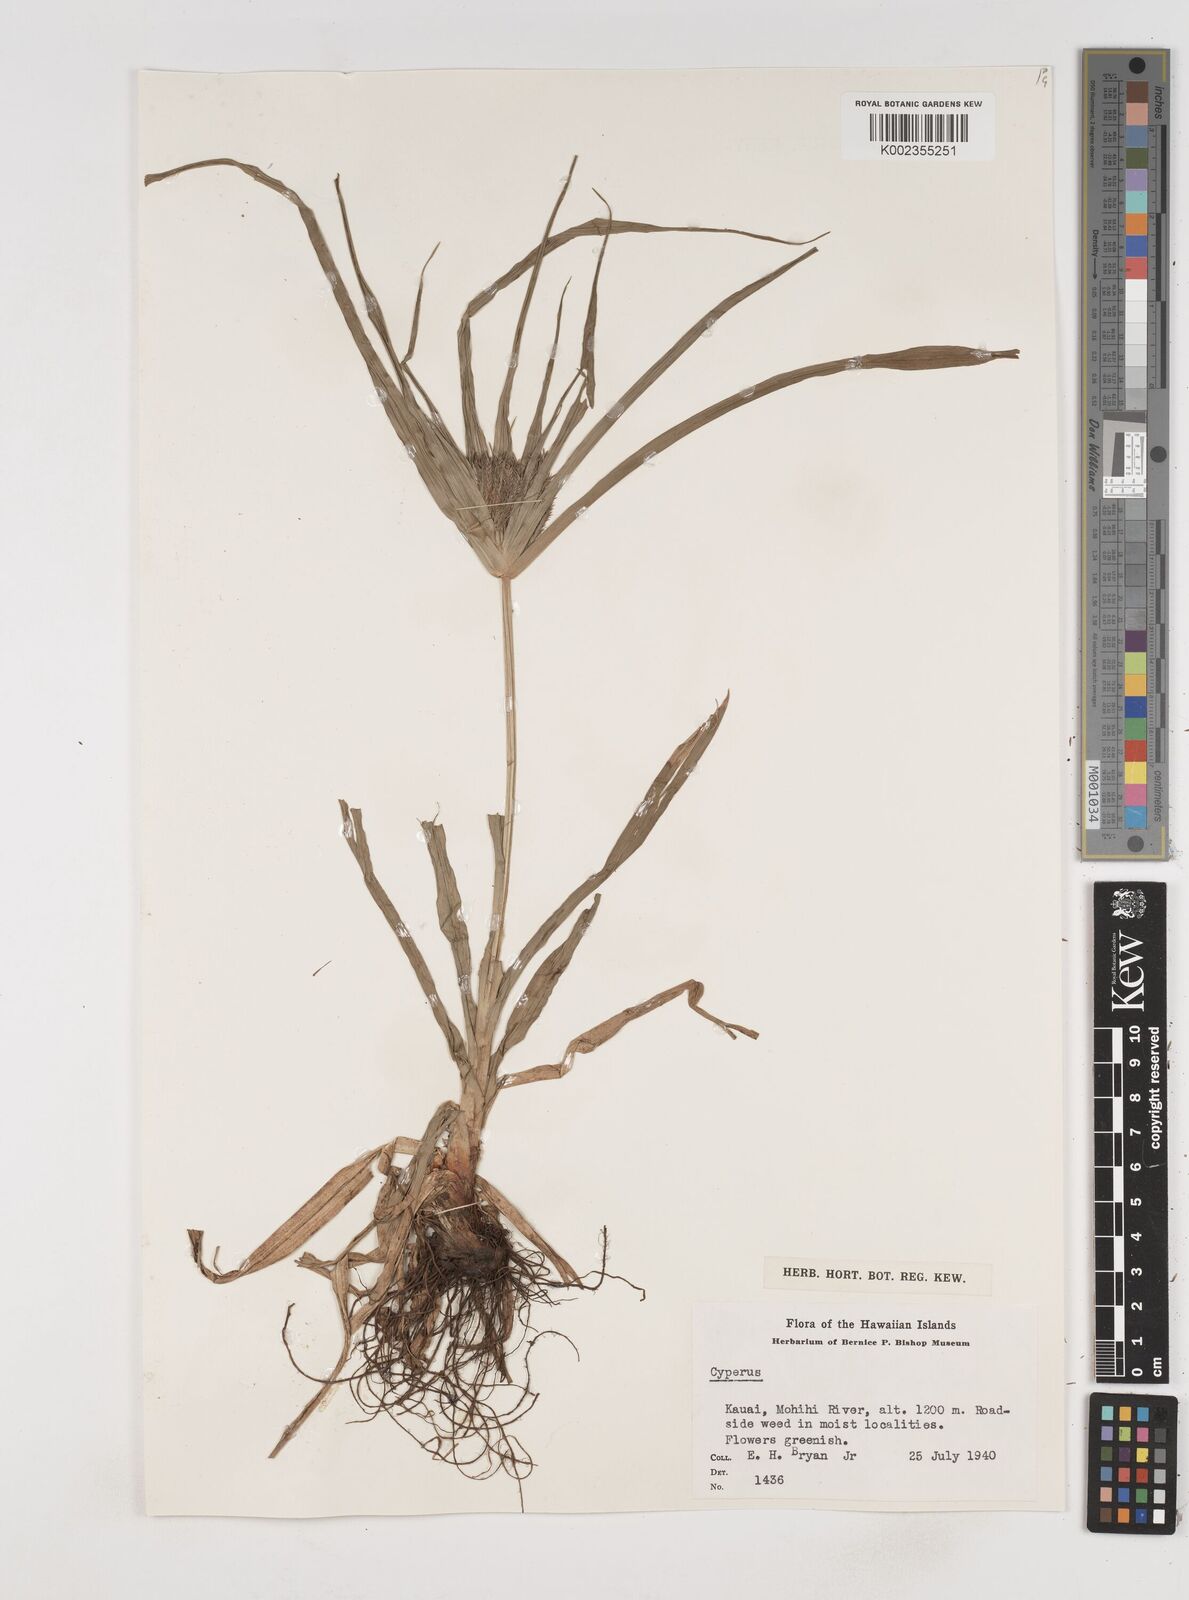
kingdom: Plantae
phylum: Tracheophyta
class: Liliopsida
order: Poales
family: Cyperaceae
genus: Cyperus
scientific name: Cyperus
